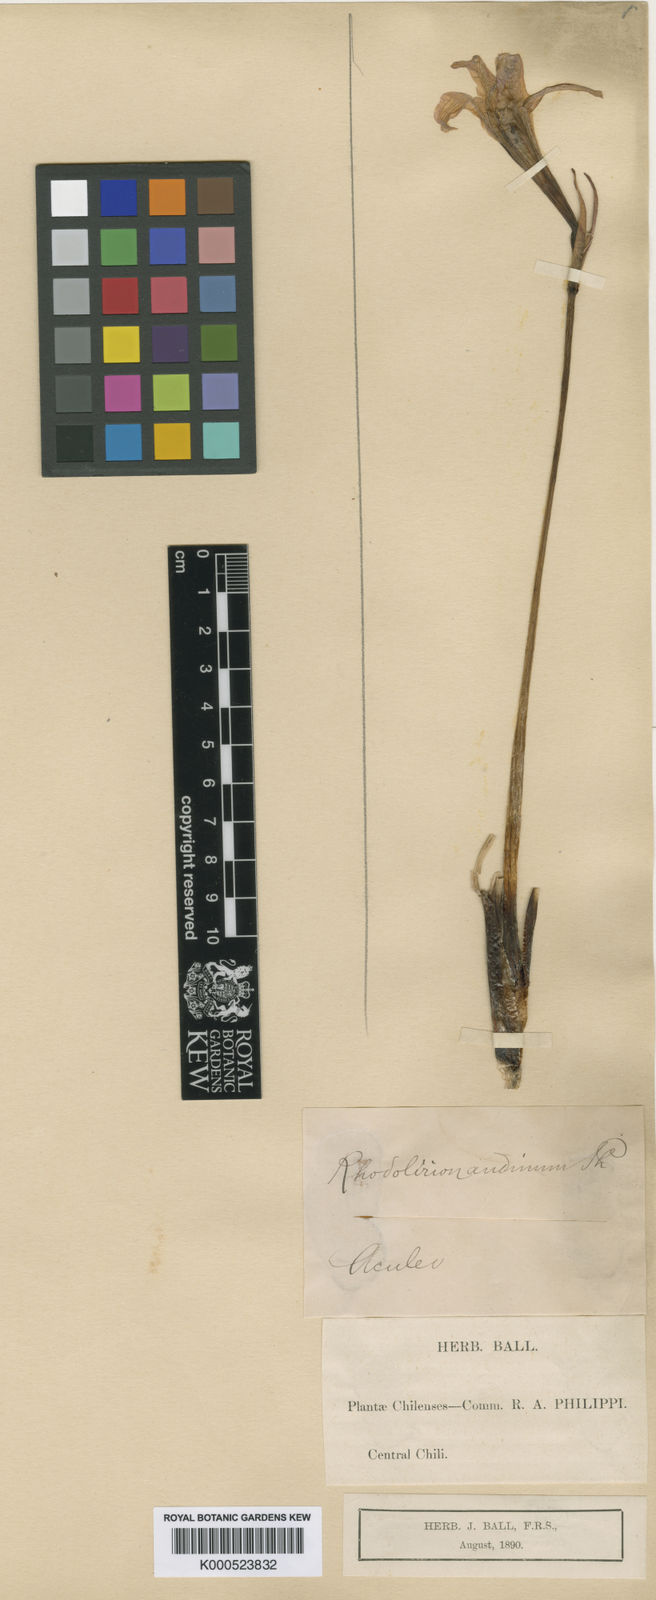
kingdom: Plantae
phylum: Tracheophyta
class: Liliopsida
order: Asparagales
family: Amaryllidaceae
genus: Rhodolirium
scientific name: Rhodolirium montanum
